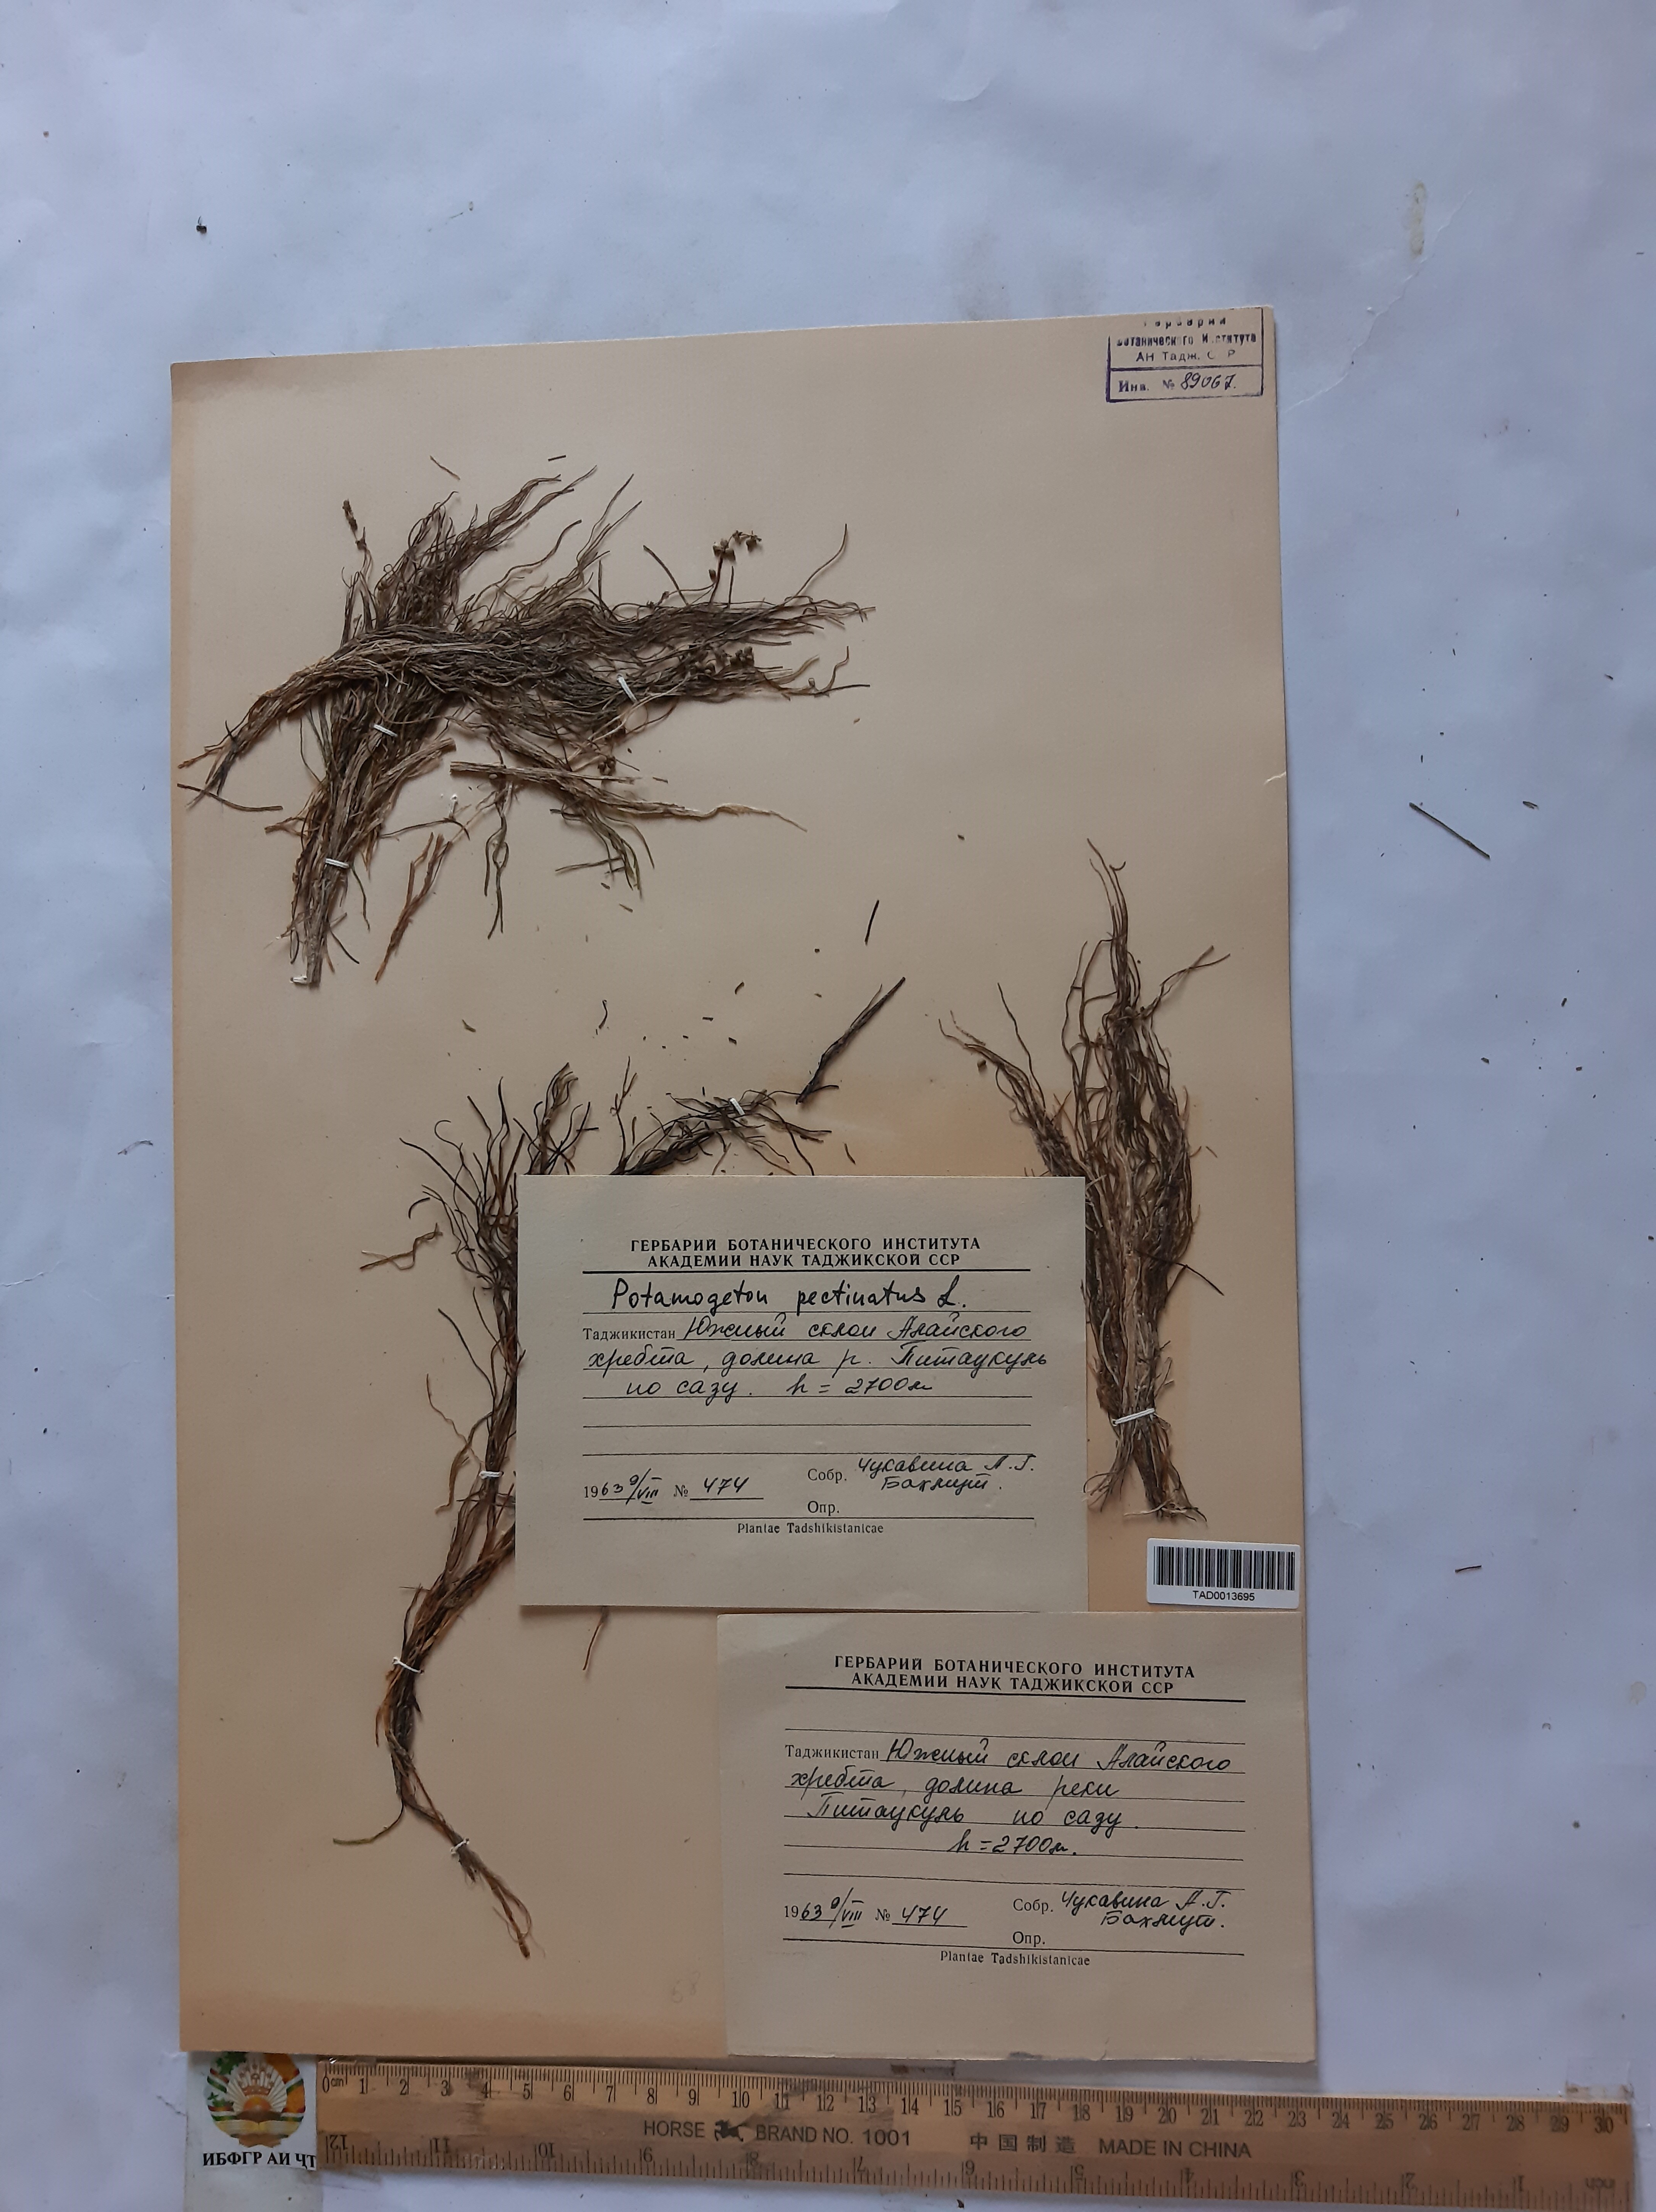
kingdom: Plantae
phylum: Tracheophyta
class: Liliopsida
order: Alismatales
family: Potamogetonaceae
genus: Stuckenia
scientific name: Stuckenia pectinata
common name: Sago pondweed
